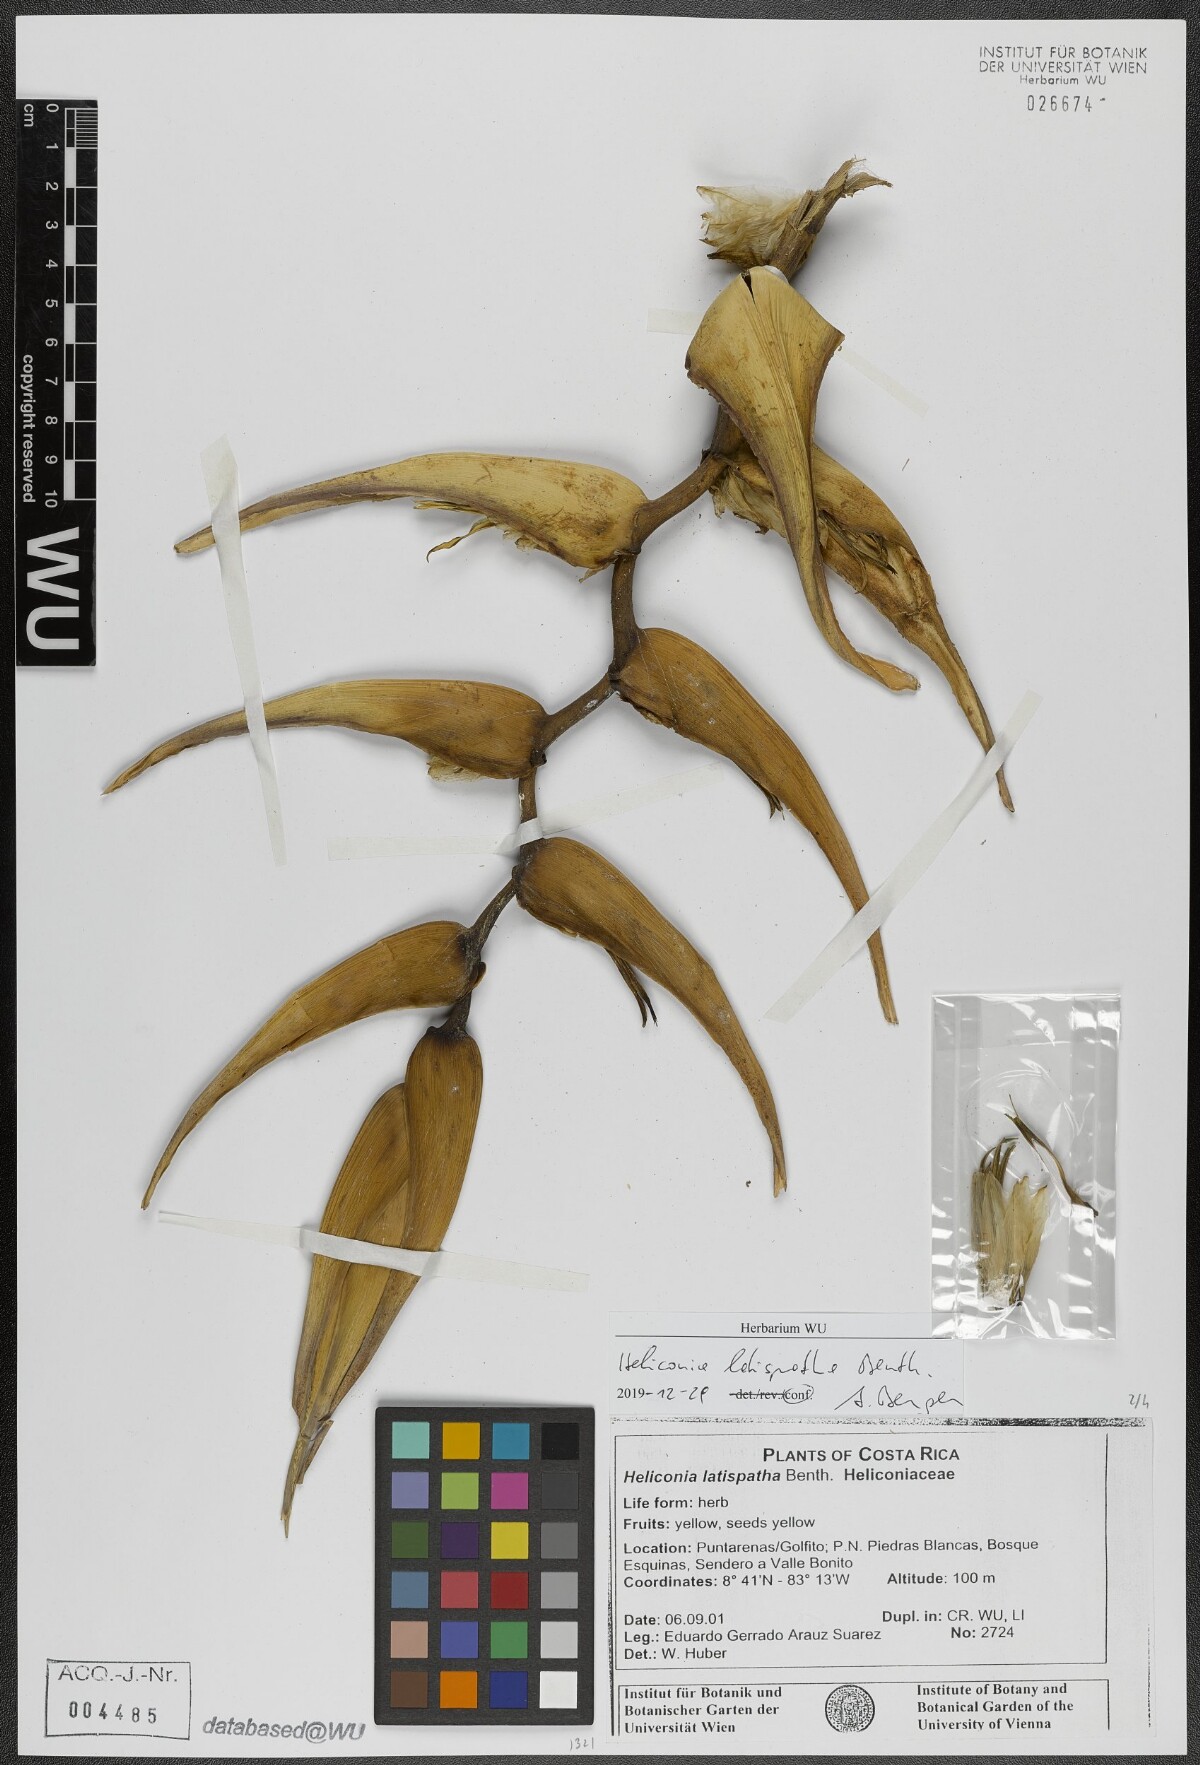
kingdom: Plantae
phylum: Tracheophyta
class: Liliopsida
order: Zingiberales
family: Heliconiaceae
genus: Heliconia
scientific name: Heliconia latispatha
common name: Expanded lobsterclaw
